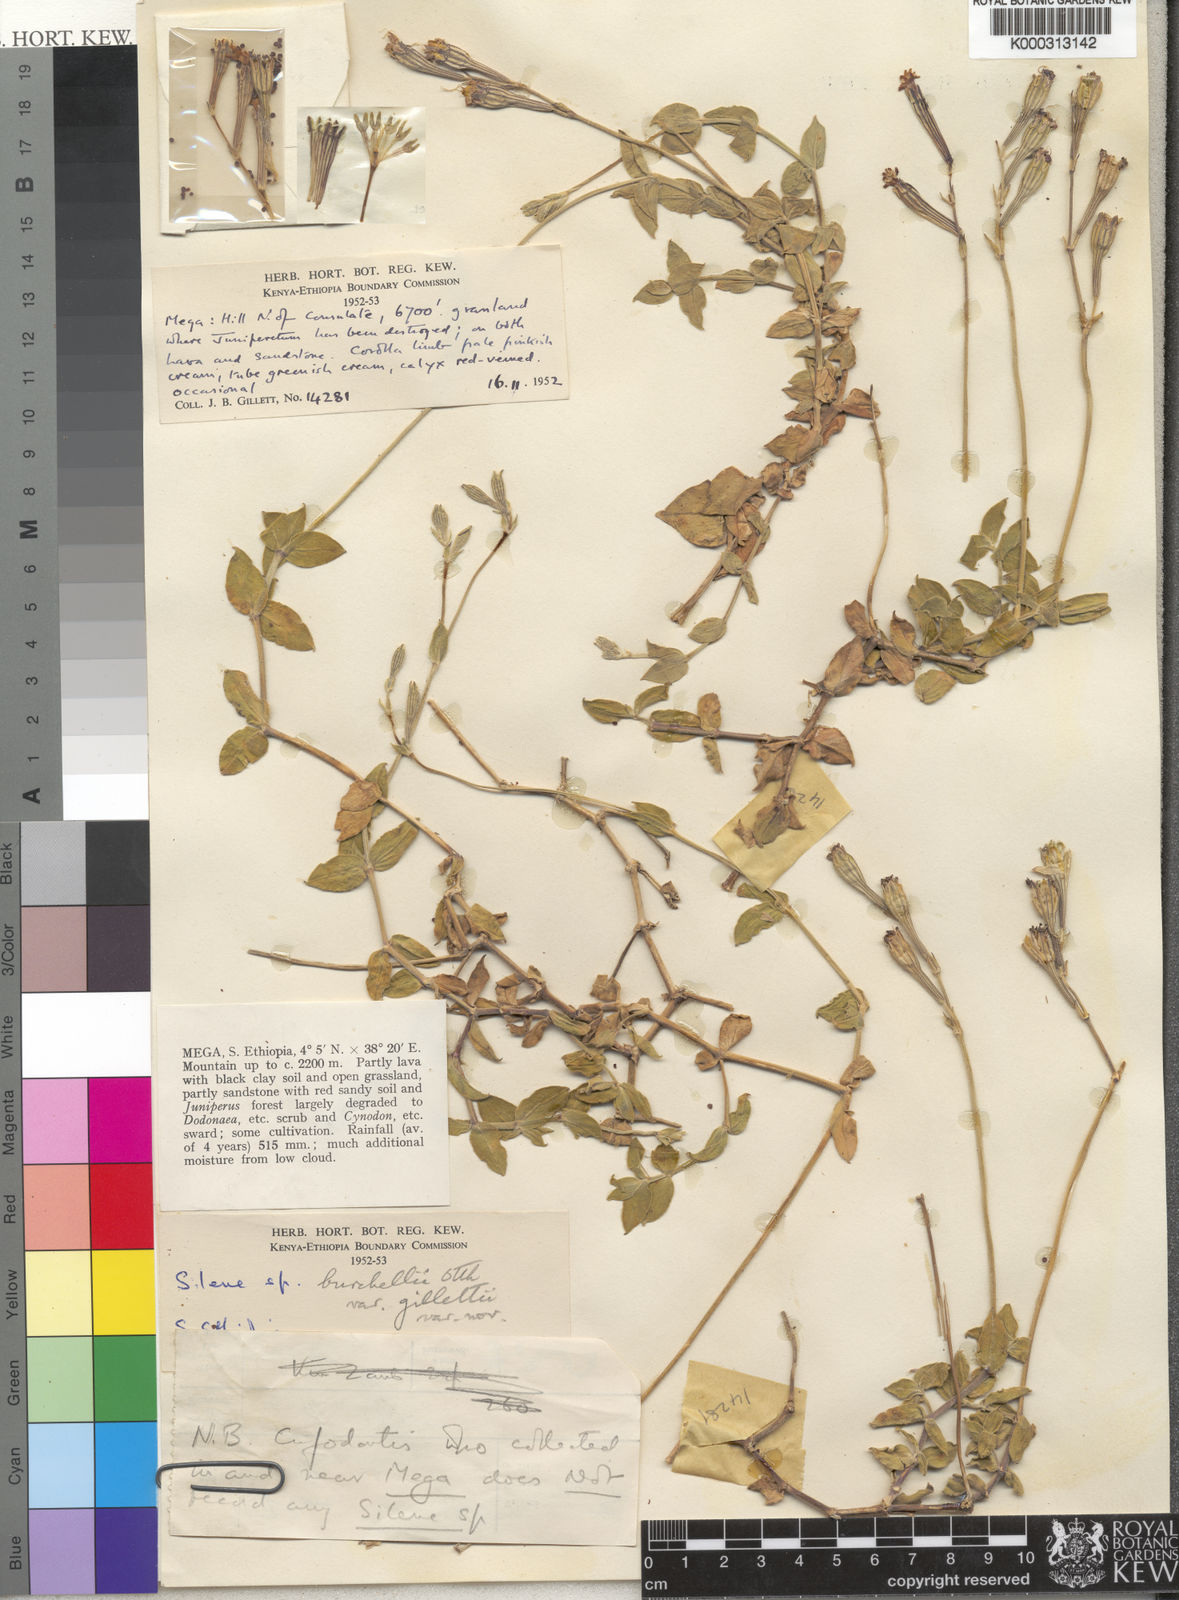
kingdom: Plantae
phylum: Tracheophyta
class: Magnoliopsida
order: Caryophyllales
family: Caryophyllaceae
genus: Silene
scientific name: Silene burchellii
